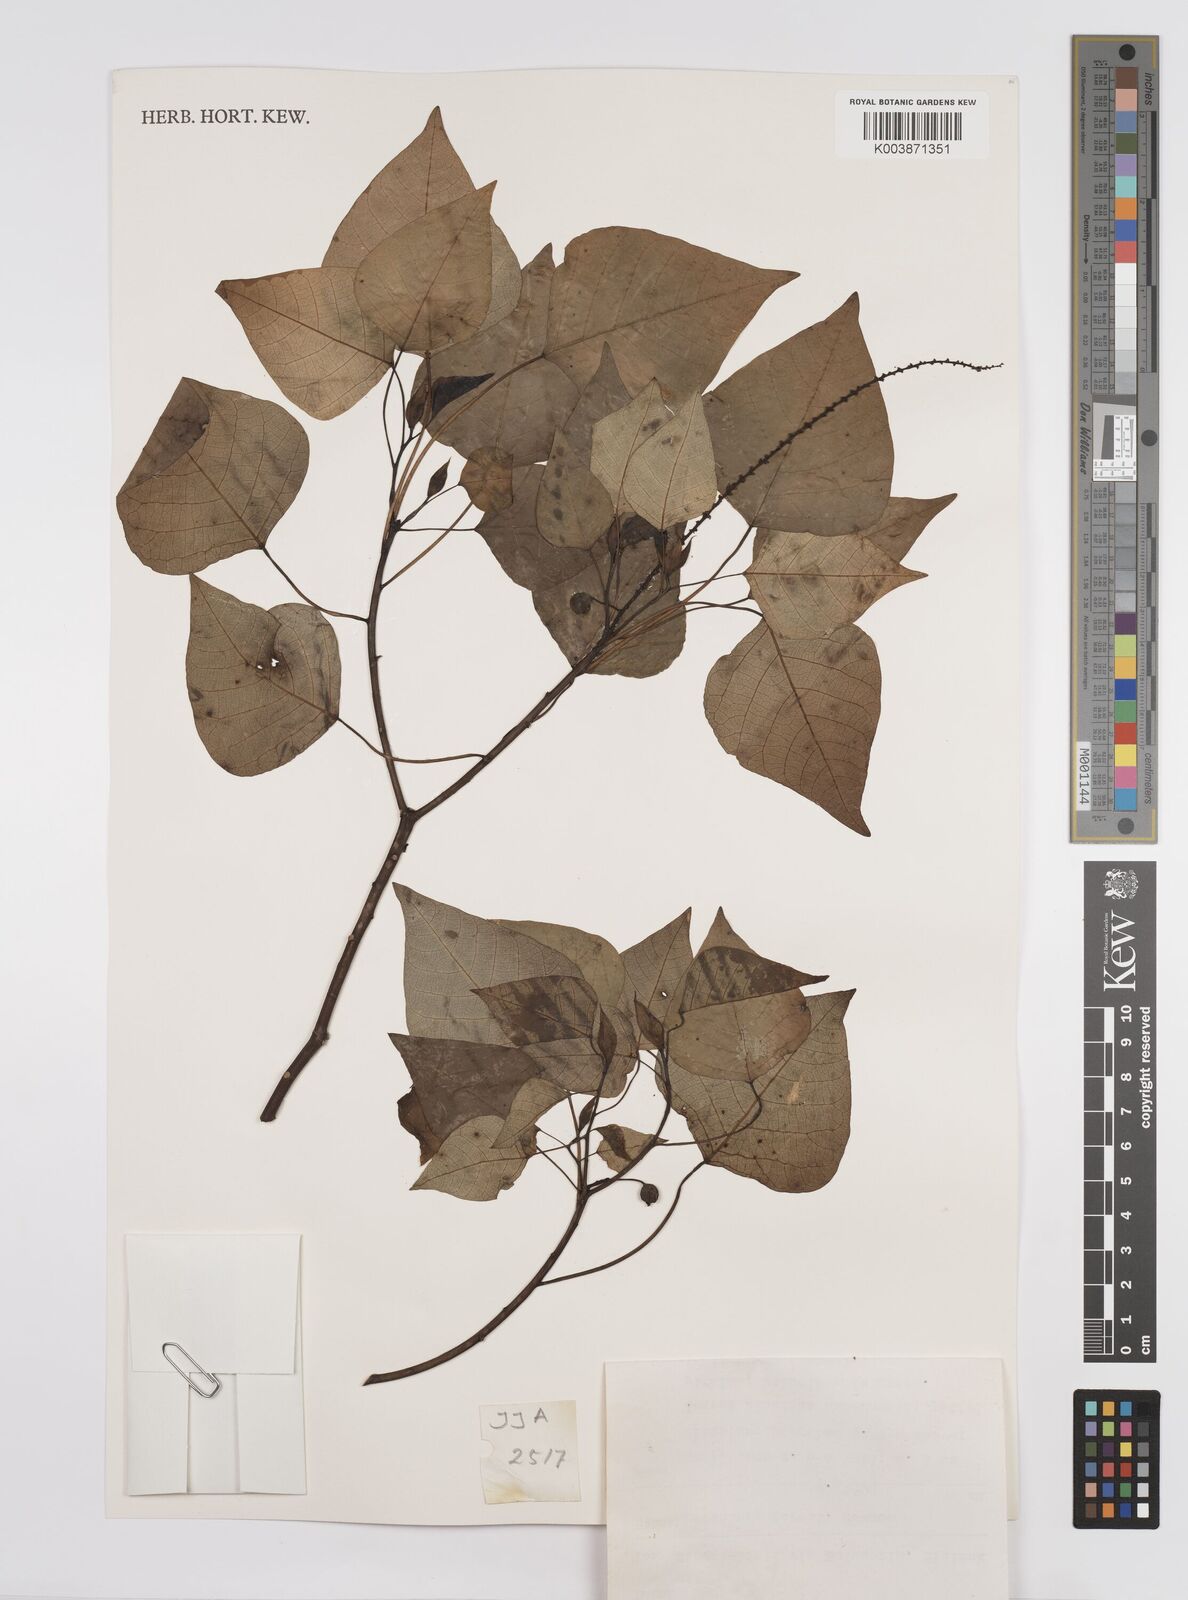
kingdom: Plantae
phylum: Tracheophyta
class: Magnoliopsida
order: Malpighiales
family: Euphorbiaceae
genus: Homalanthus
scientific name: Homalanthus populneus
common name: Spurge
